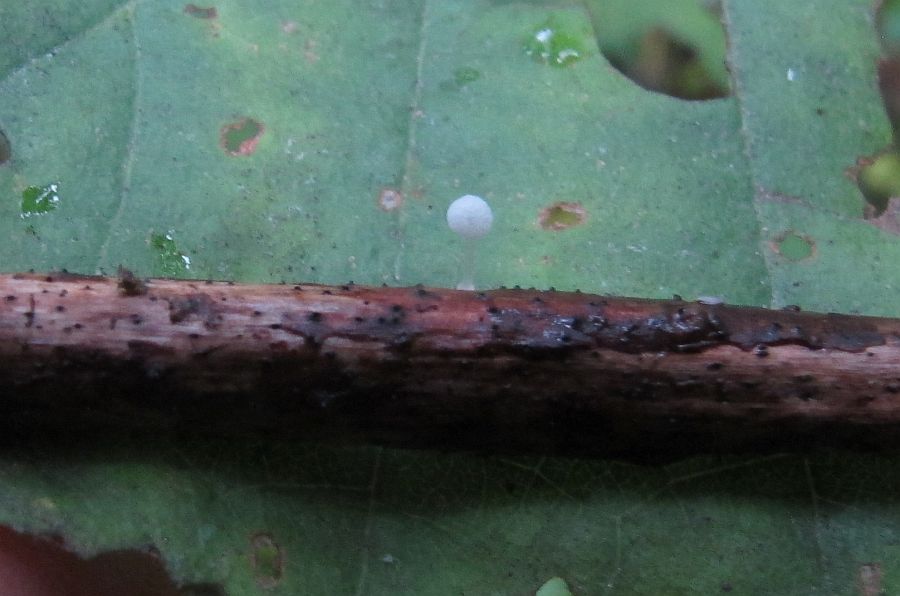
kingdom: Fungi
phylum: Basidiomycota
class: Agaricomycetes
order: Agaricales
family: Mycenaceae
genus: Mycena
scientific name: Mycena tenerrima
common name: pudret huesvamp
